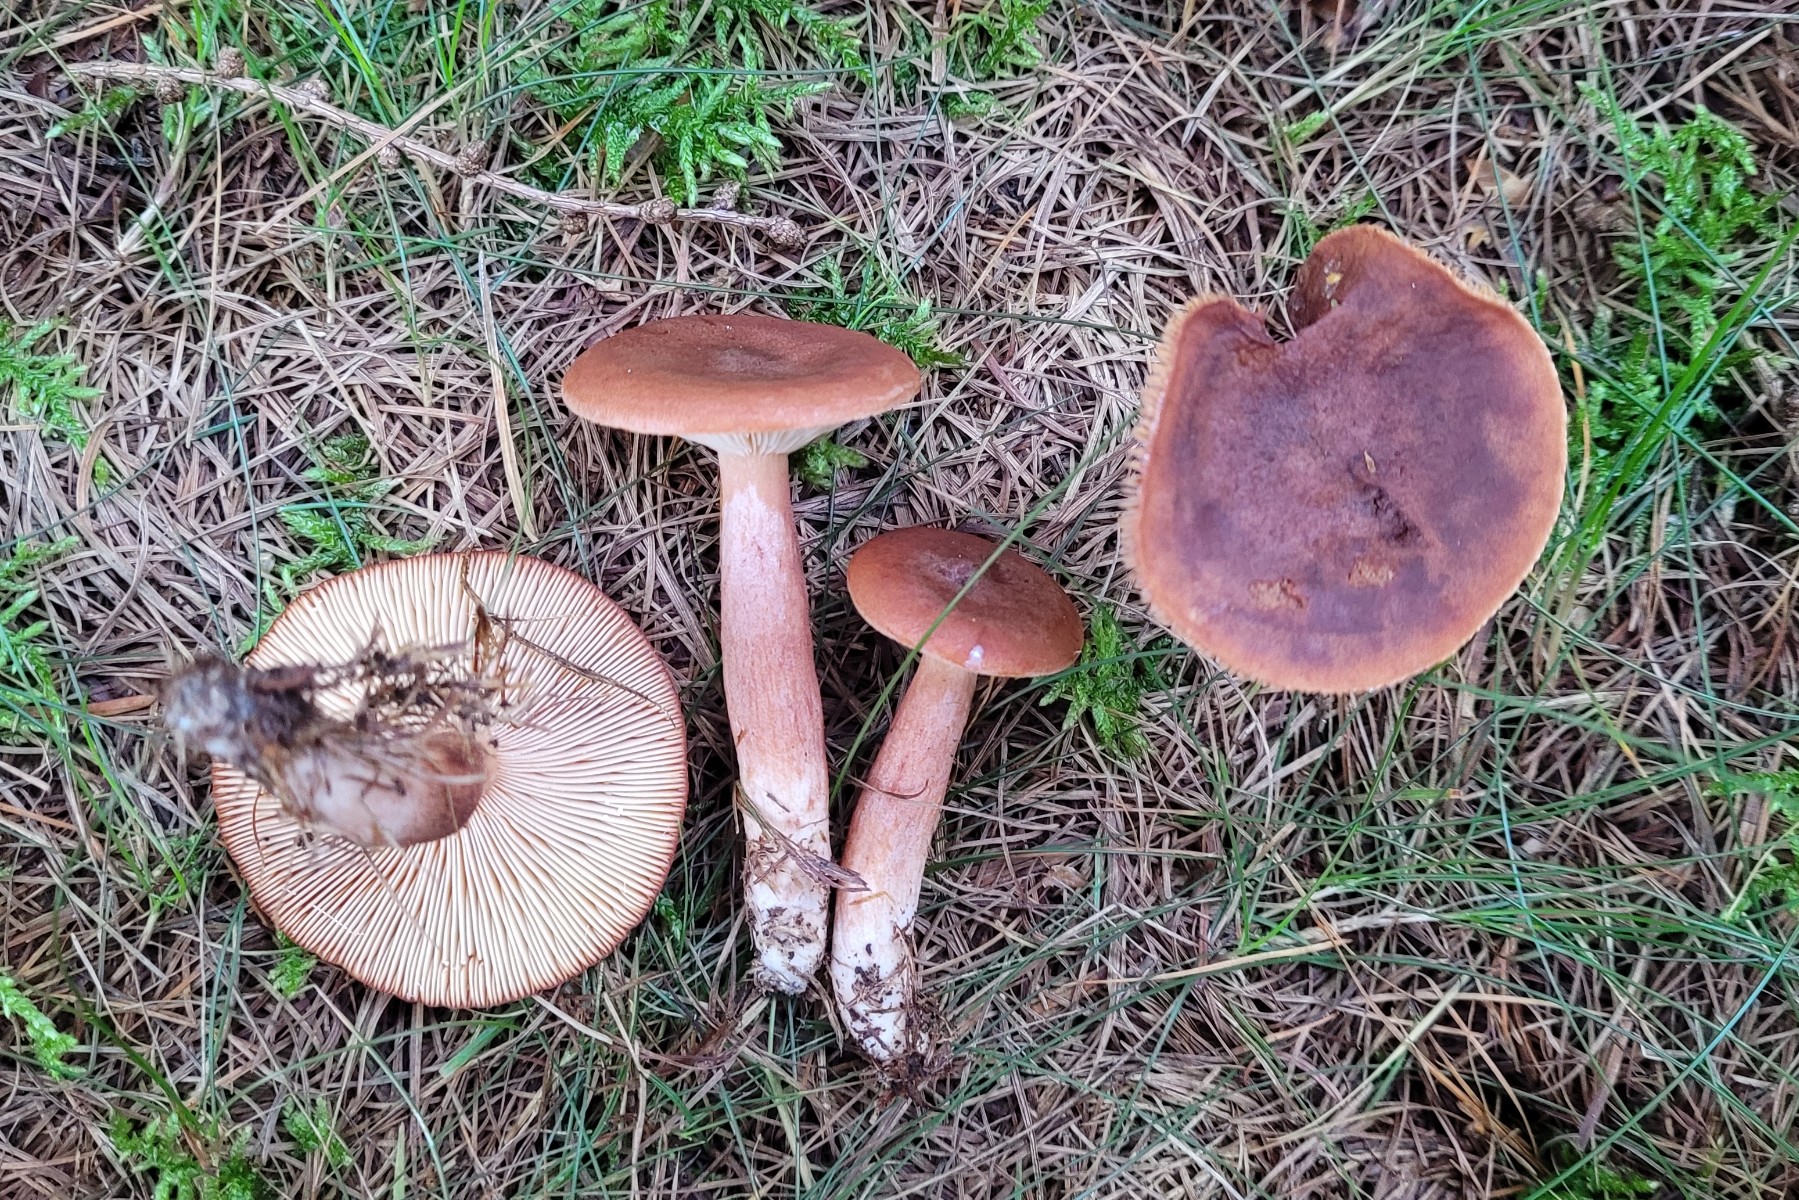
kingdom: Fungi
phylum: Basidiomycota
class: Agaricomycetes
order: Russulales
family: Russulaceae
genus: Lactarius
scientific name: Lactarius aurantiacus
